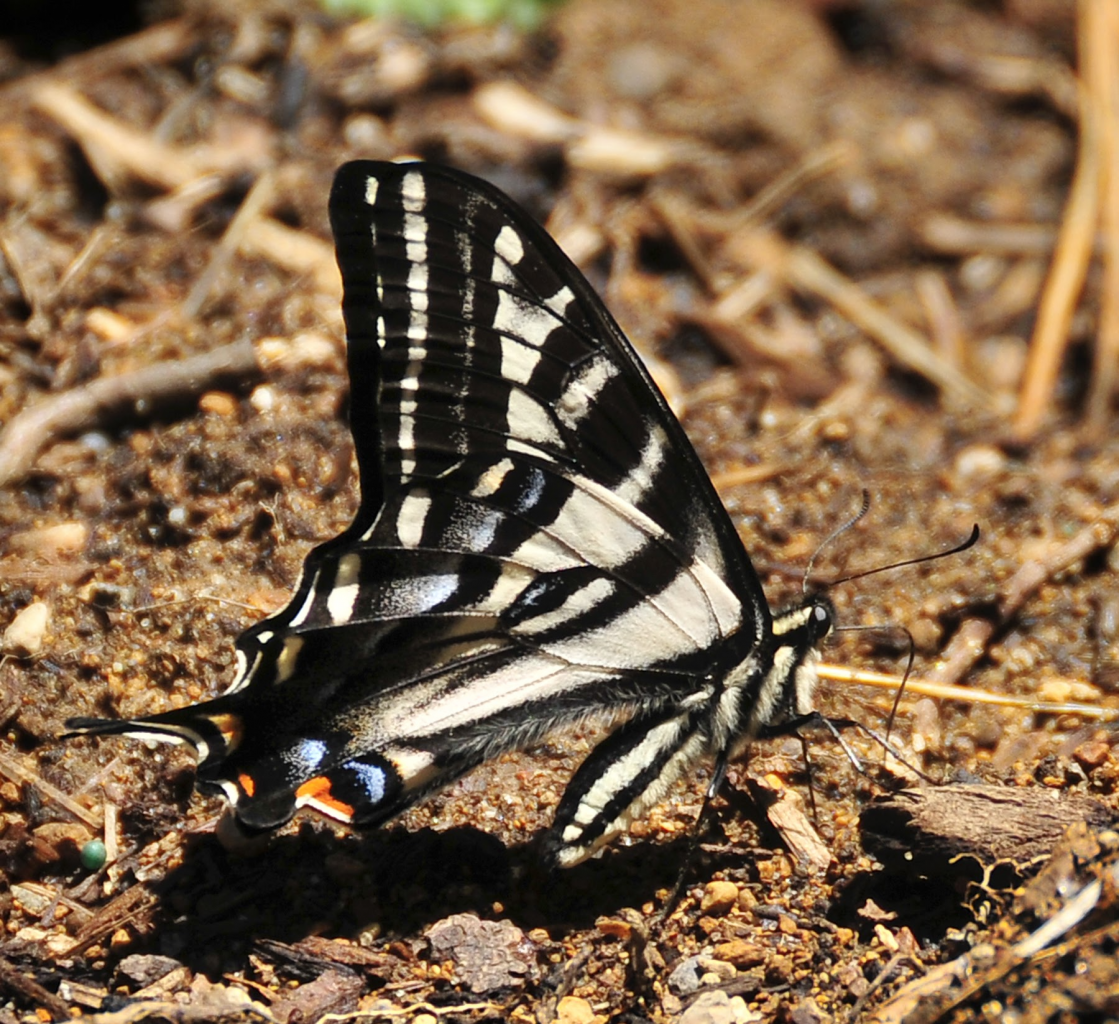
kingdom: Animalia
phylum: Arthropoda
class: Insecta
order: Lepidoptera
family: Papilionidae
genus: Pterourus
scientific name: Pterourus eurymedon
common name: Pale Swallowtail
